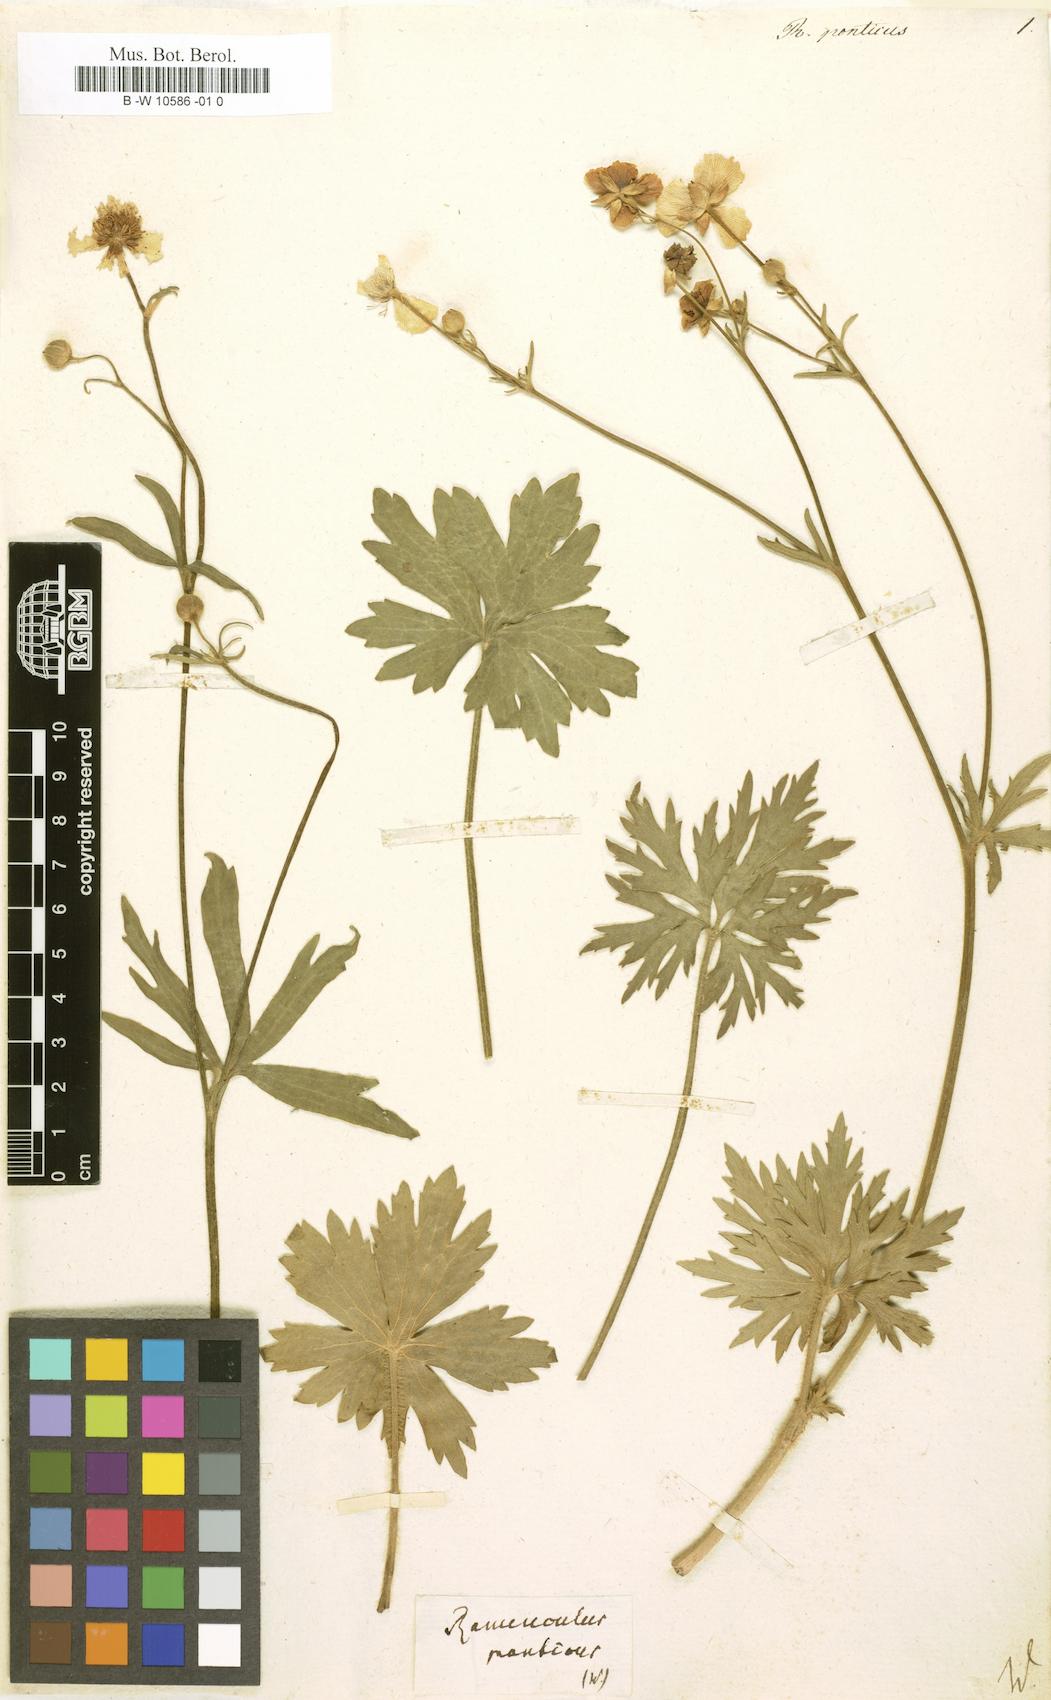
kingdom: Plantae
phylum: Tracheophyta
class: Magnoliopsida
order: Ranunculales
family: Ranunculaceae
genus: Ranunculus
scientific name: Ranunculus
